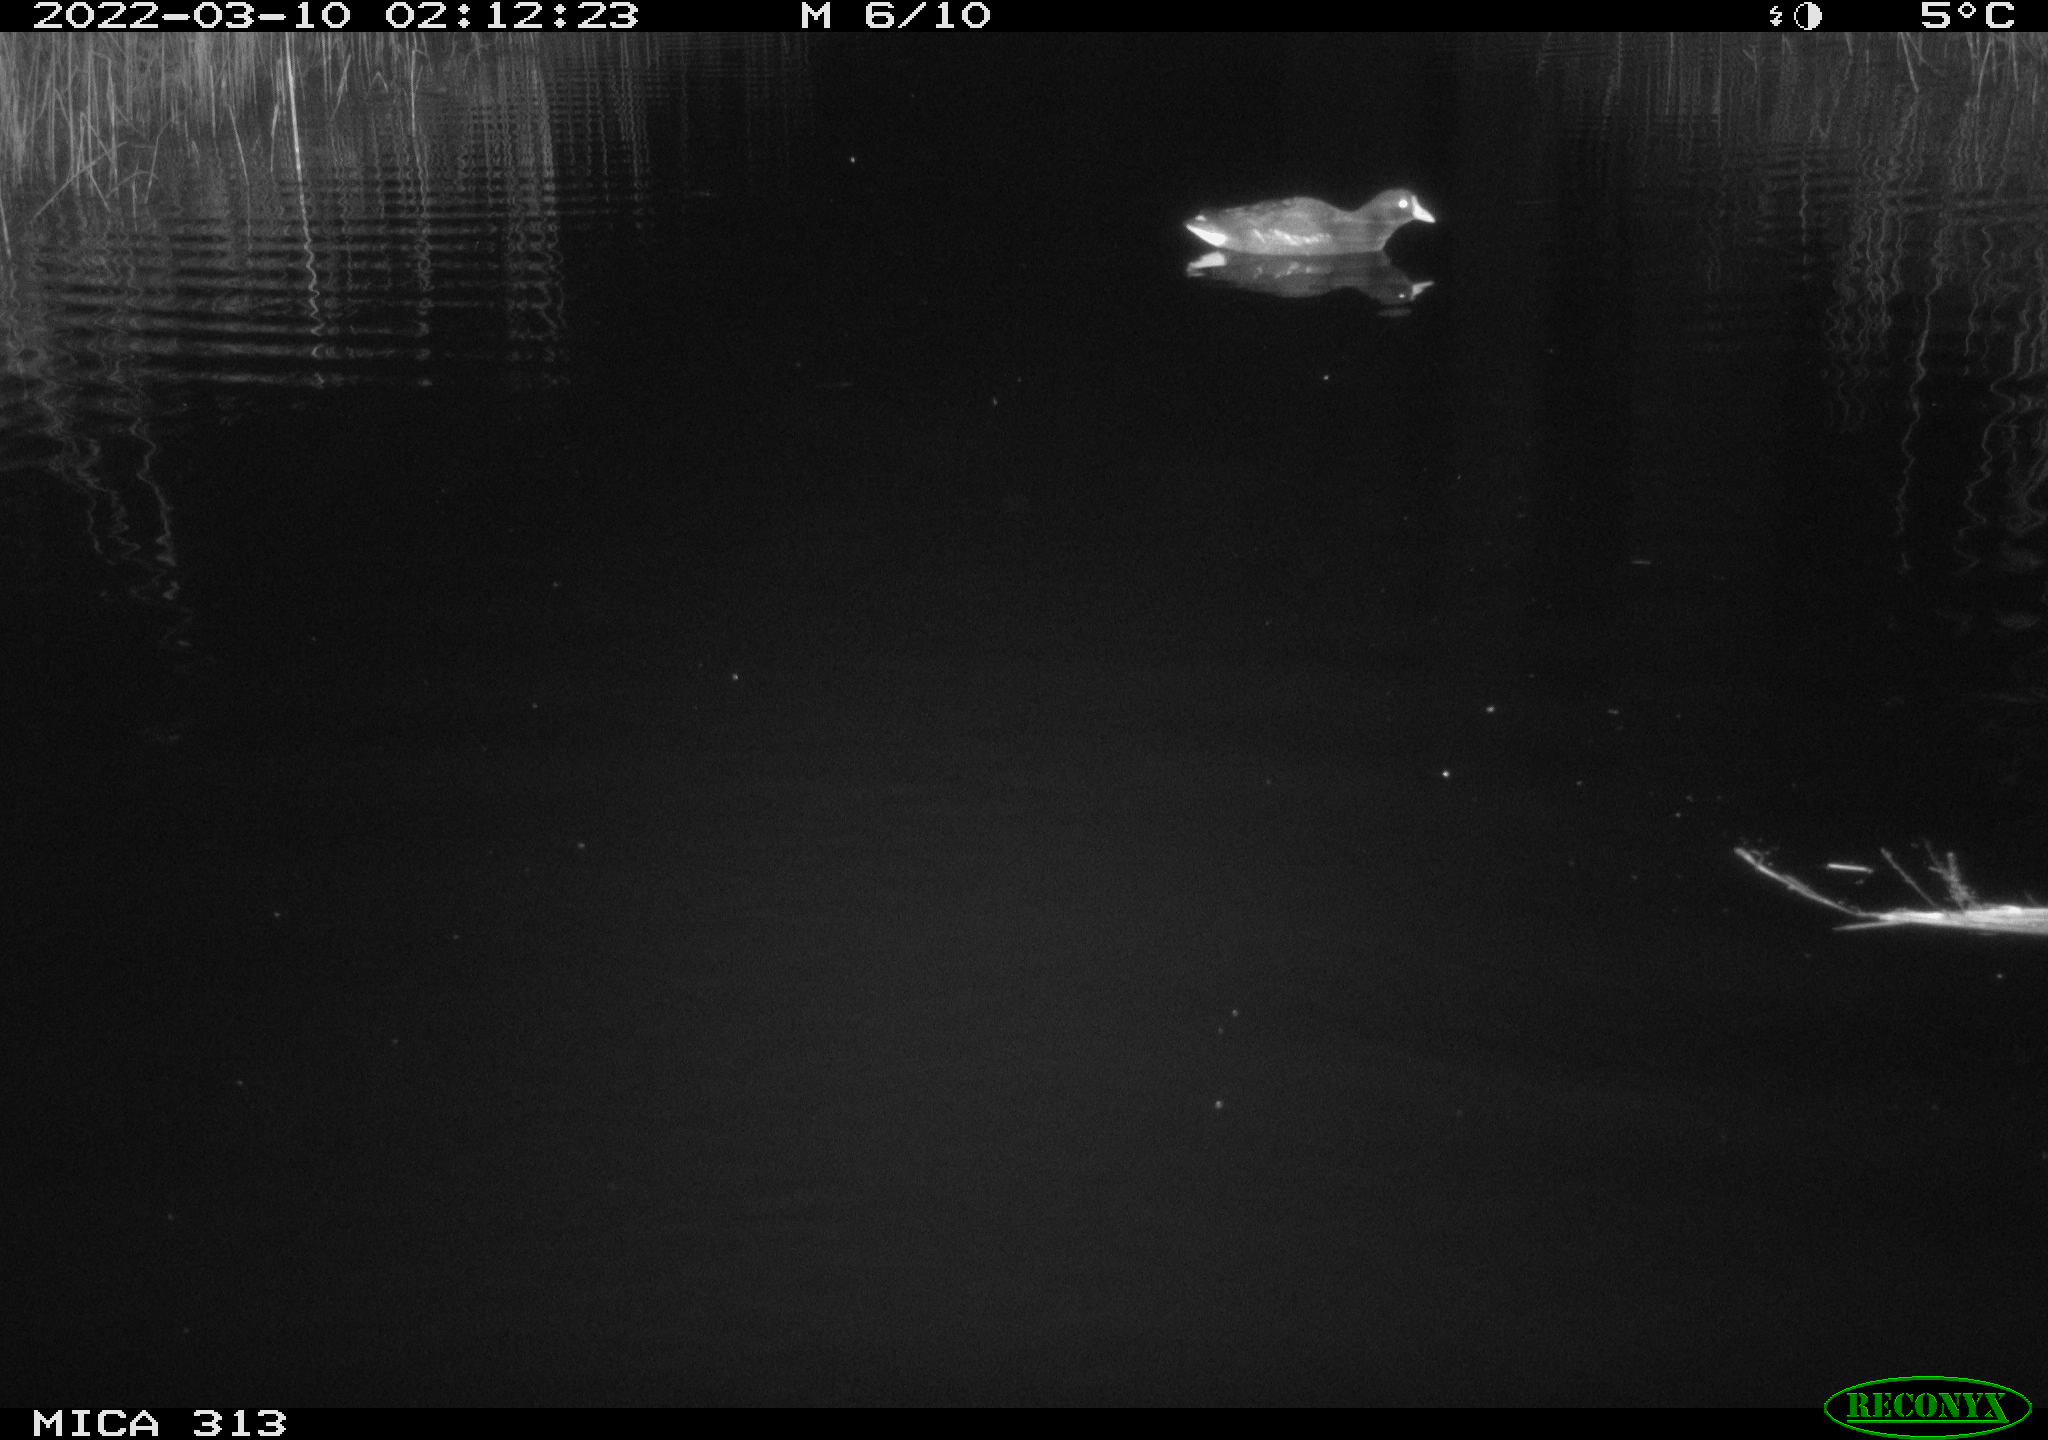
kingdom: Animalia
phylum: Chordata
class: Aves
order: Gruiformes
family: Rallidae
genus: Gallinula
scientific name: Gallinula chloropus
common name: Common moorhen
